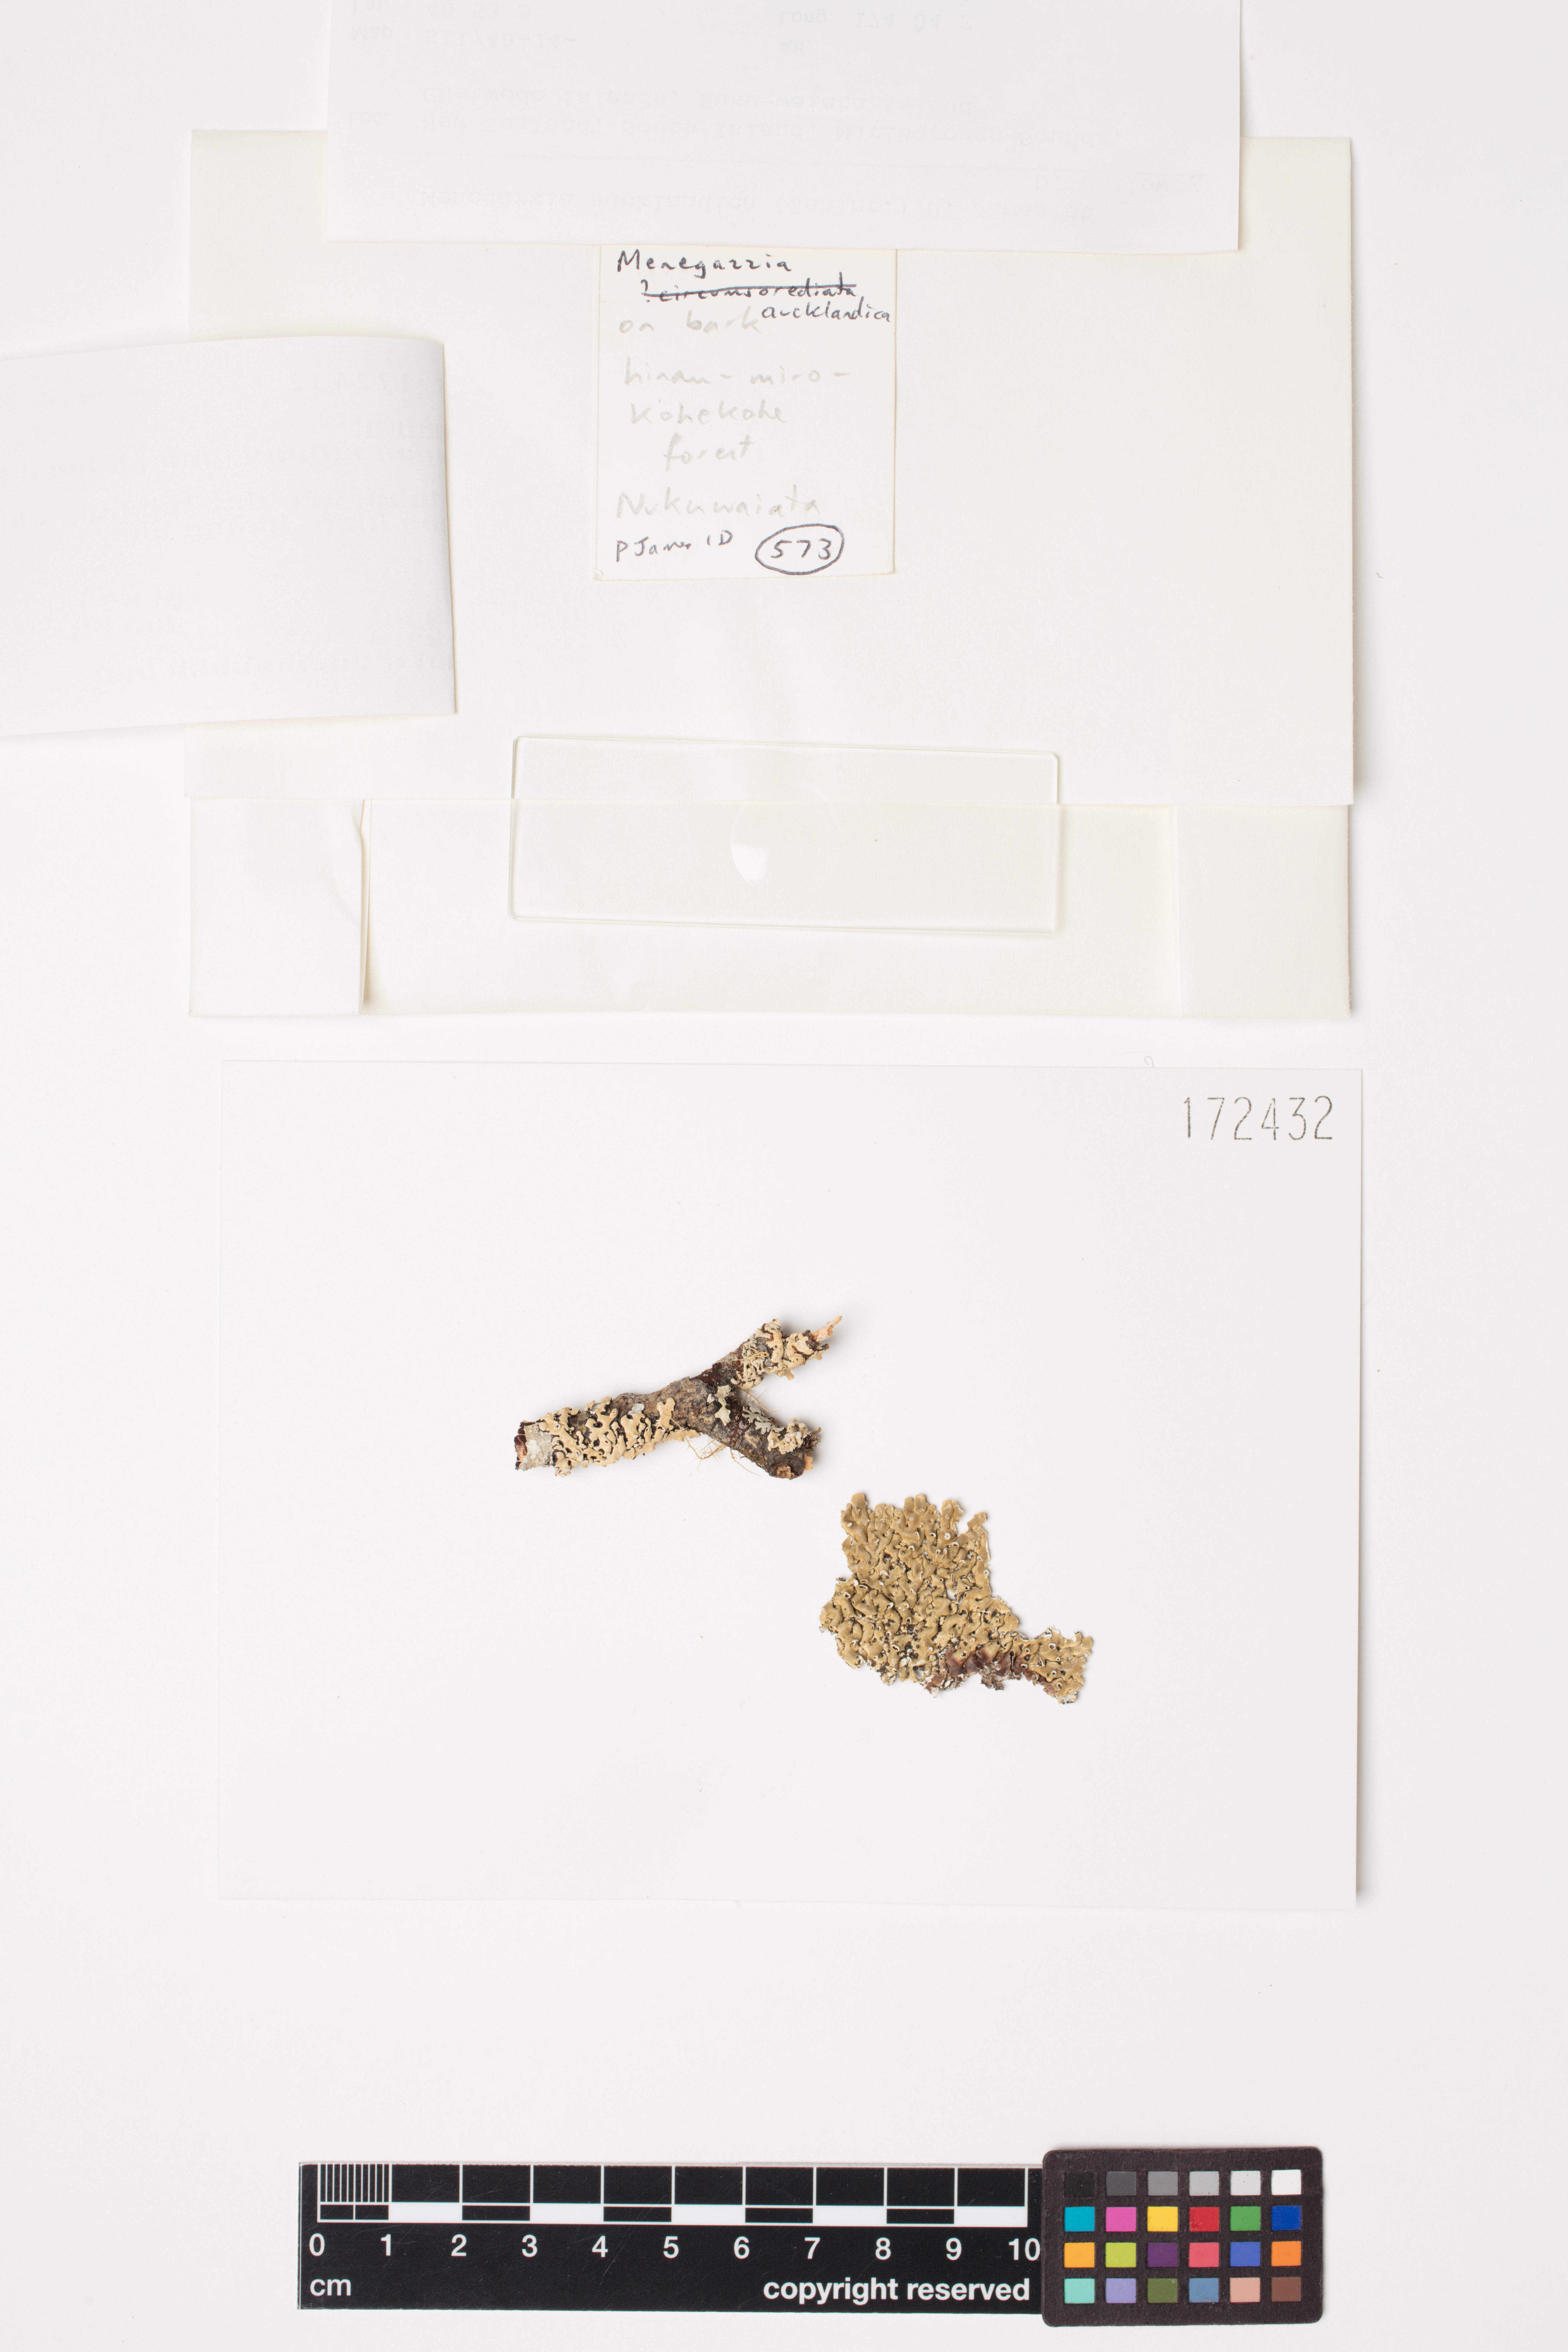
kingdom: Fungi
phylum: Ascomycota
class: Lecanoromycetes
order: Lecanorales
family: Parmeliaceae
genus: Menegazzia
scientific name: Menegazzia aucklandica
